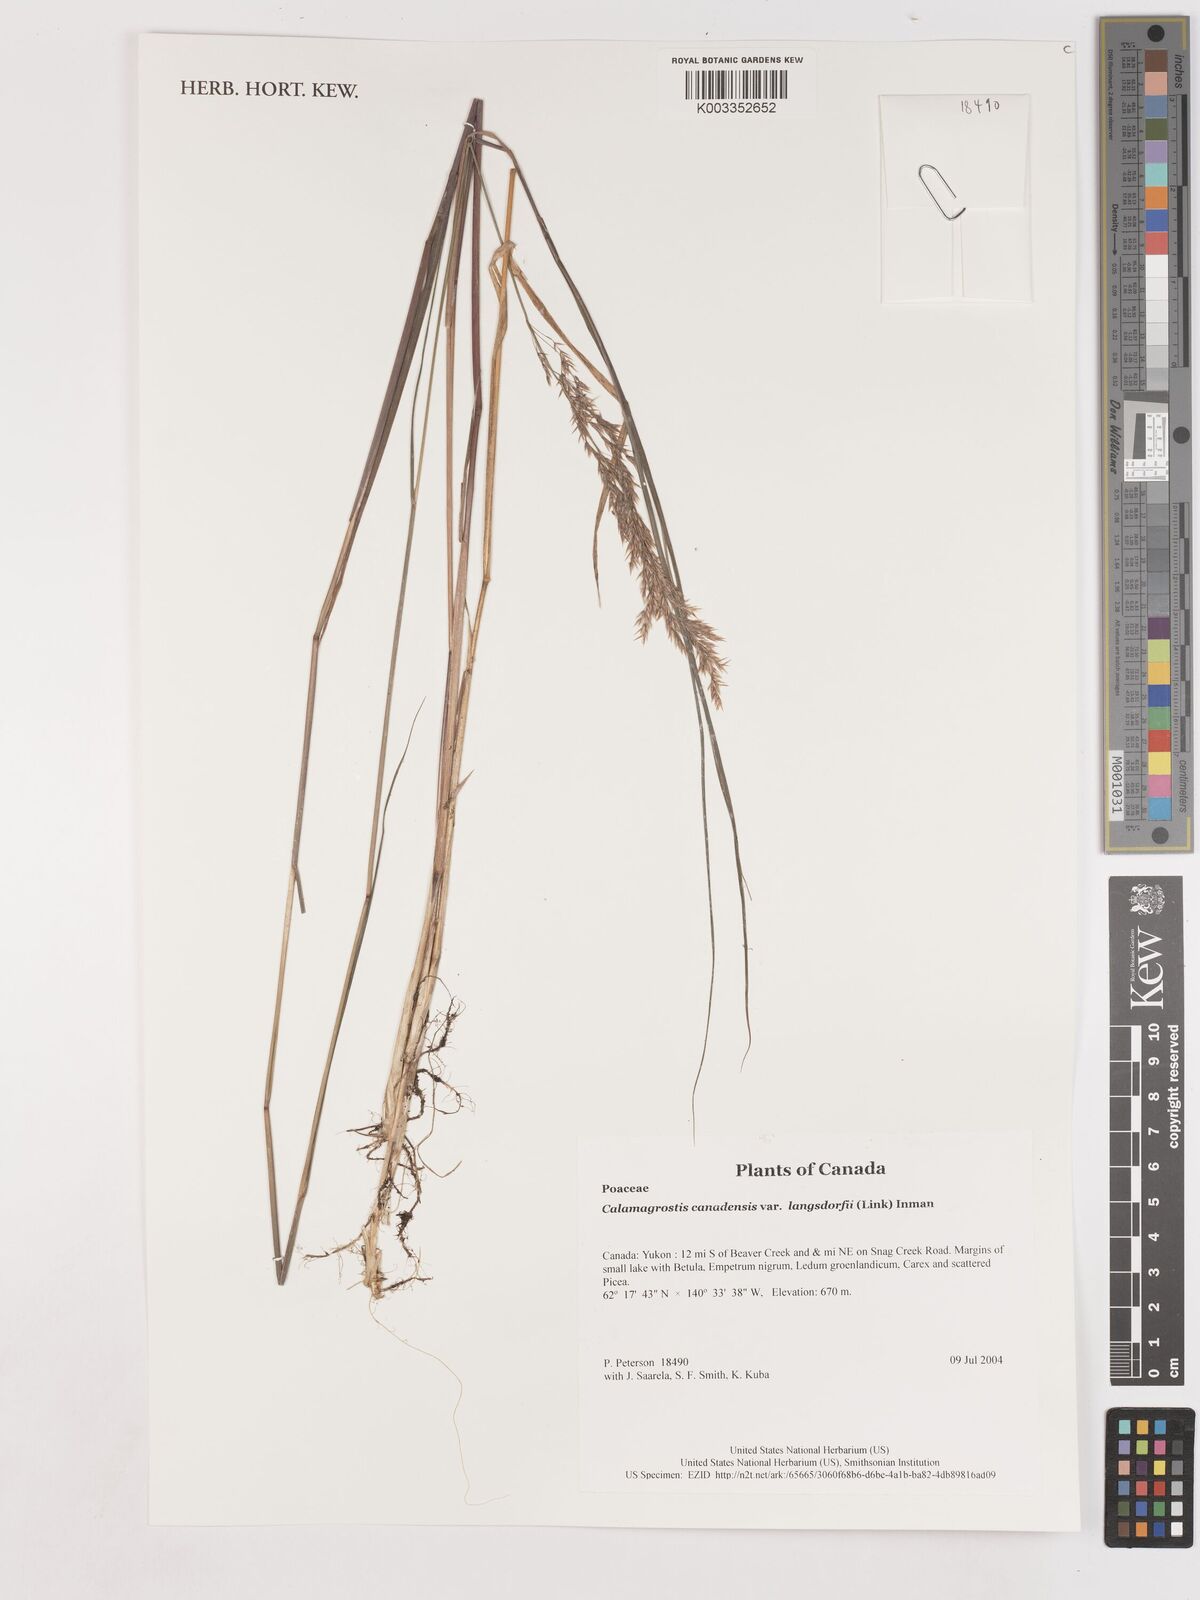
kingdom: Plantae
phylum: Tracheophyta
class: Liliopsida
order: Poales
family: Poaceae
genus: Calamagrostis
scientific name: Calamagrostis canadensis
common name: Canada bluejoint
